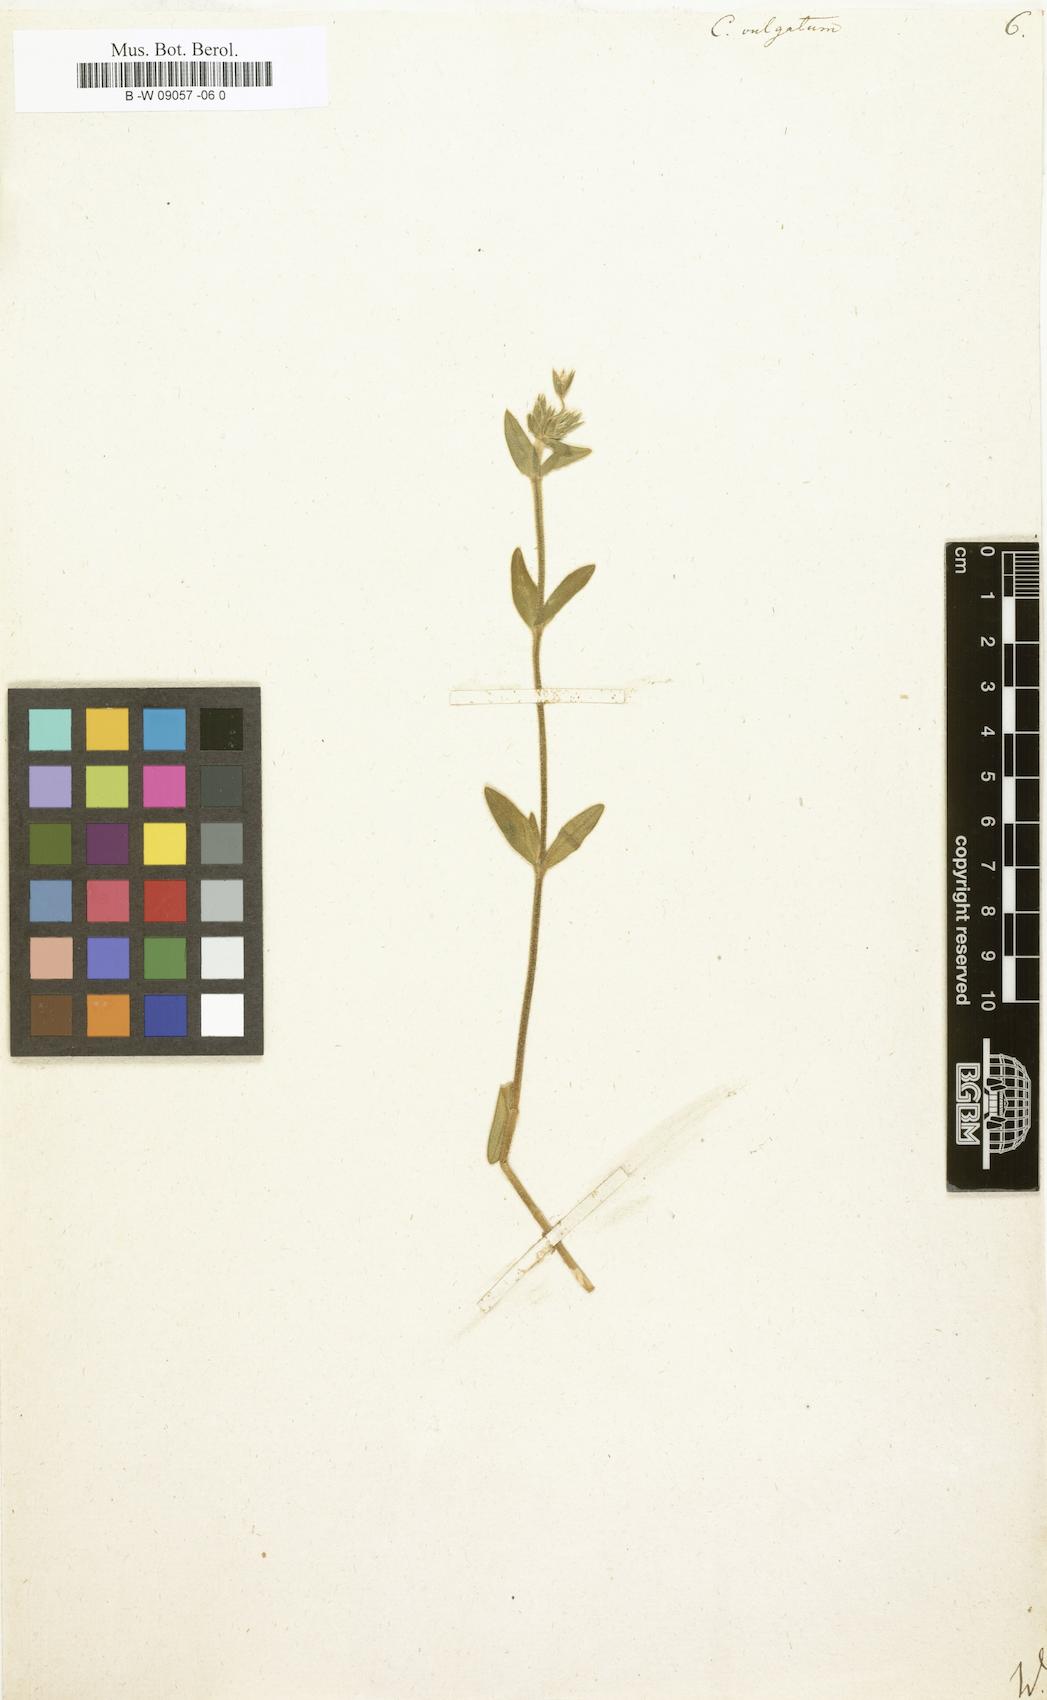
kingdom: Plantae
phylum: Tracheophyta
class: Magnoliopsida
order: Caryophyllales
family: Caryophyllaceae
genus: Cerastium
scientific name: Cerastium
